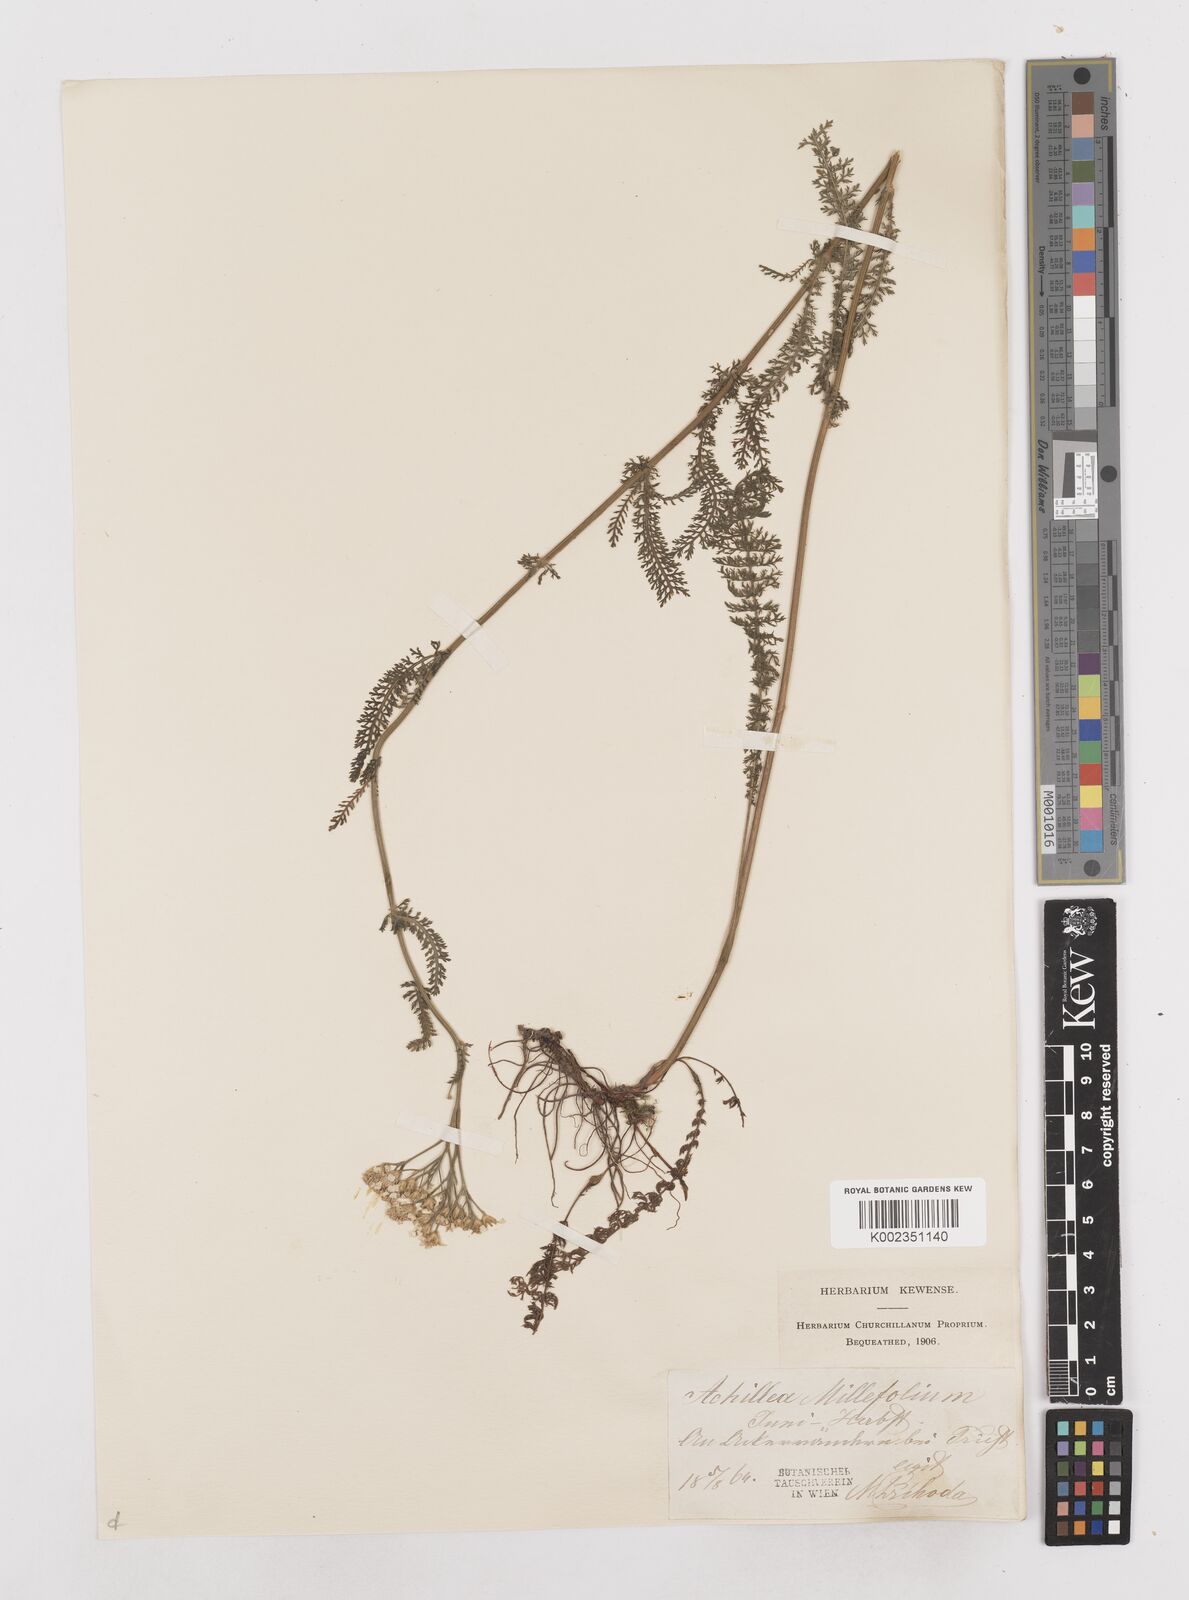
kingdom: Plantae
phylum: Tracheophyta
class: Magnoliopsida
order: Asterales
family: Asteraceae
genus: Achillea
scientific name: Achillea millefolium
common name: Yarrow
